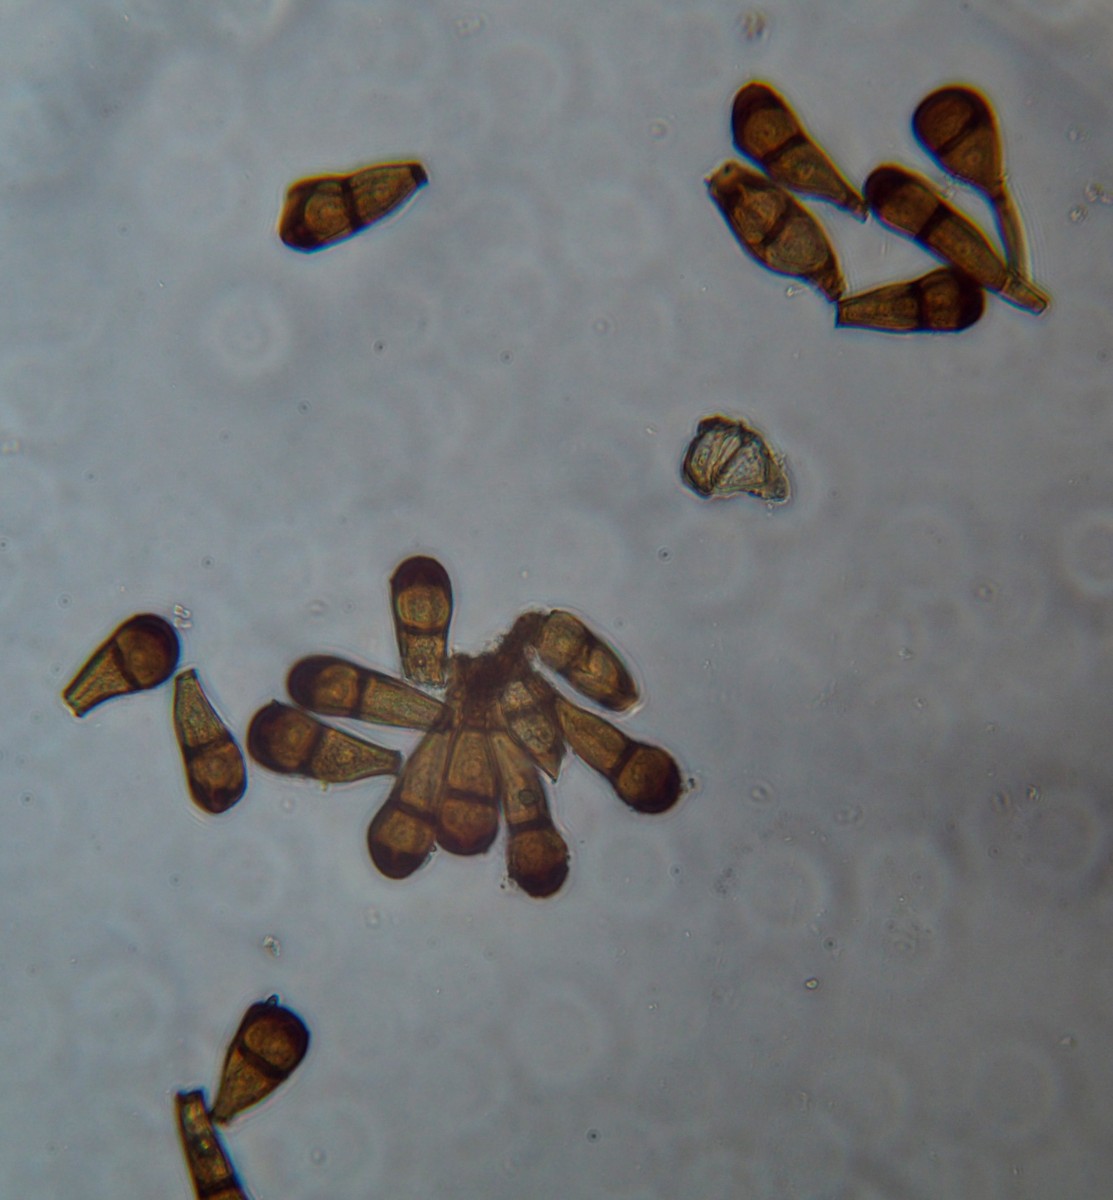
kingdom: Fungi
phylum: Basidiomycota
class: Pucciniomycetes
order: Pucciniales
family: Pucciniaceae
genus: Puccinia
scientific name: Puccinia phragmitis
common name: tagrør-tvecellerust
